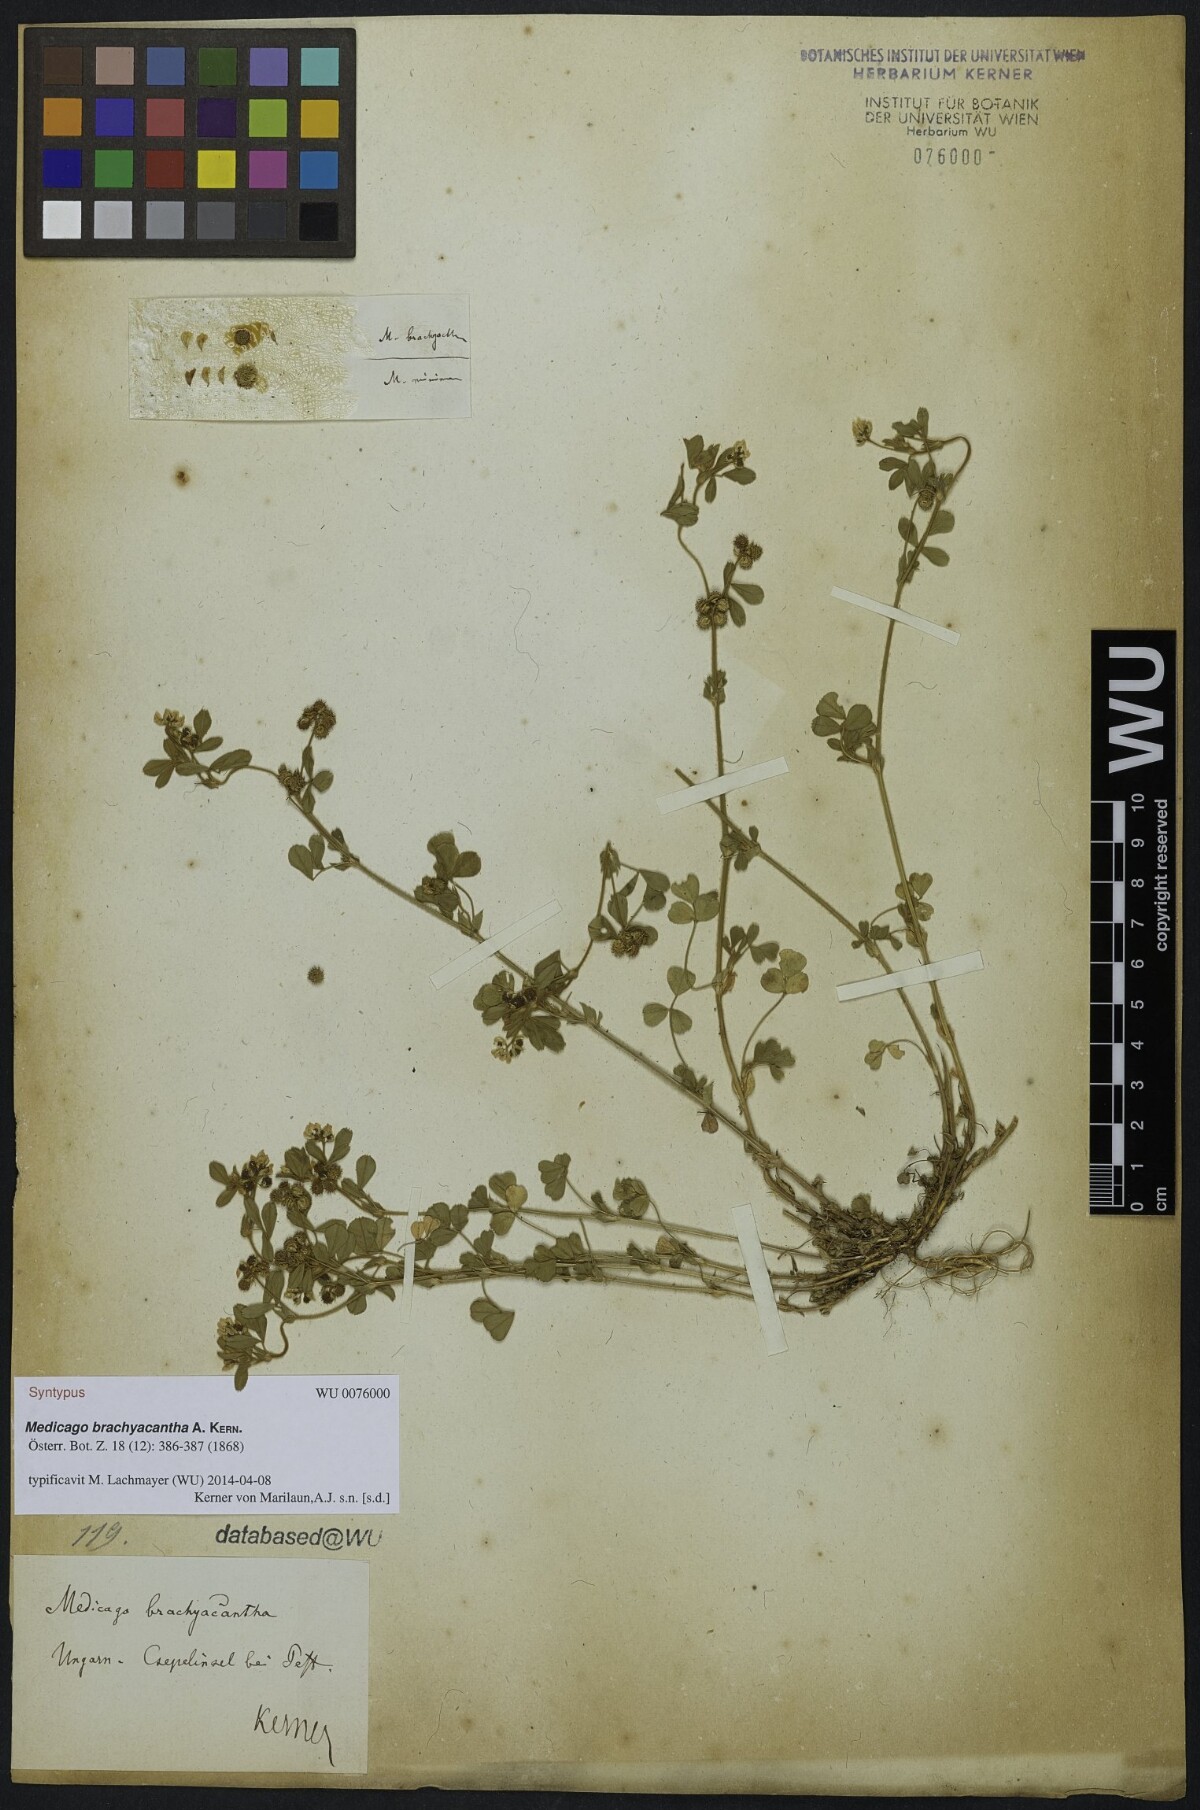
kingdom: Plantae
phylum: Tracheophyta
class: Magnoliopsida
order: Fabales
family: Fabaceae
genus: Medicago
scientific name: Medicago minima
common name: Little bur-clover
